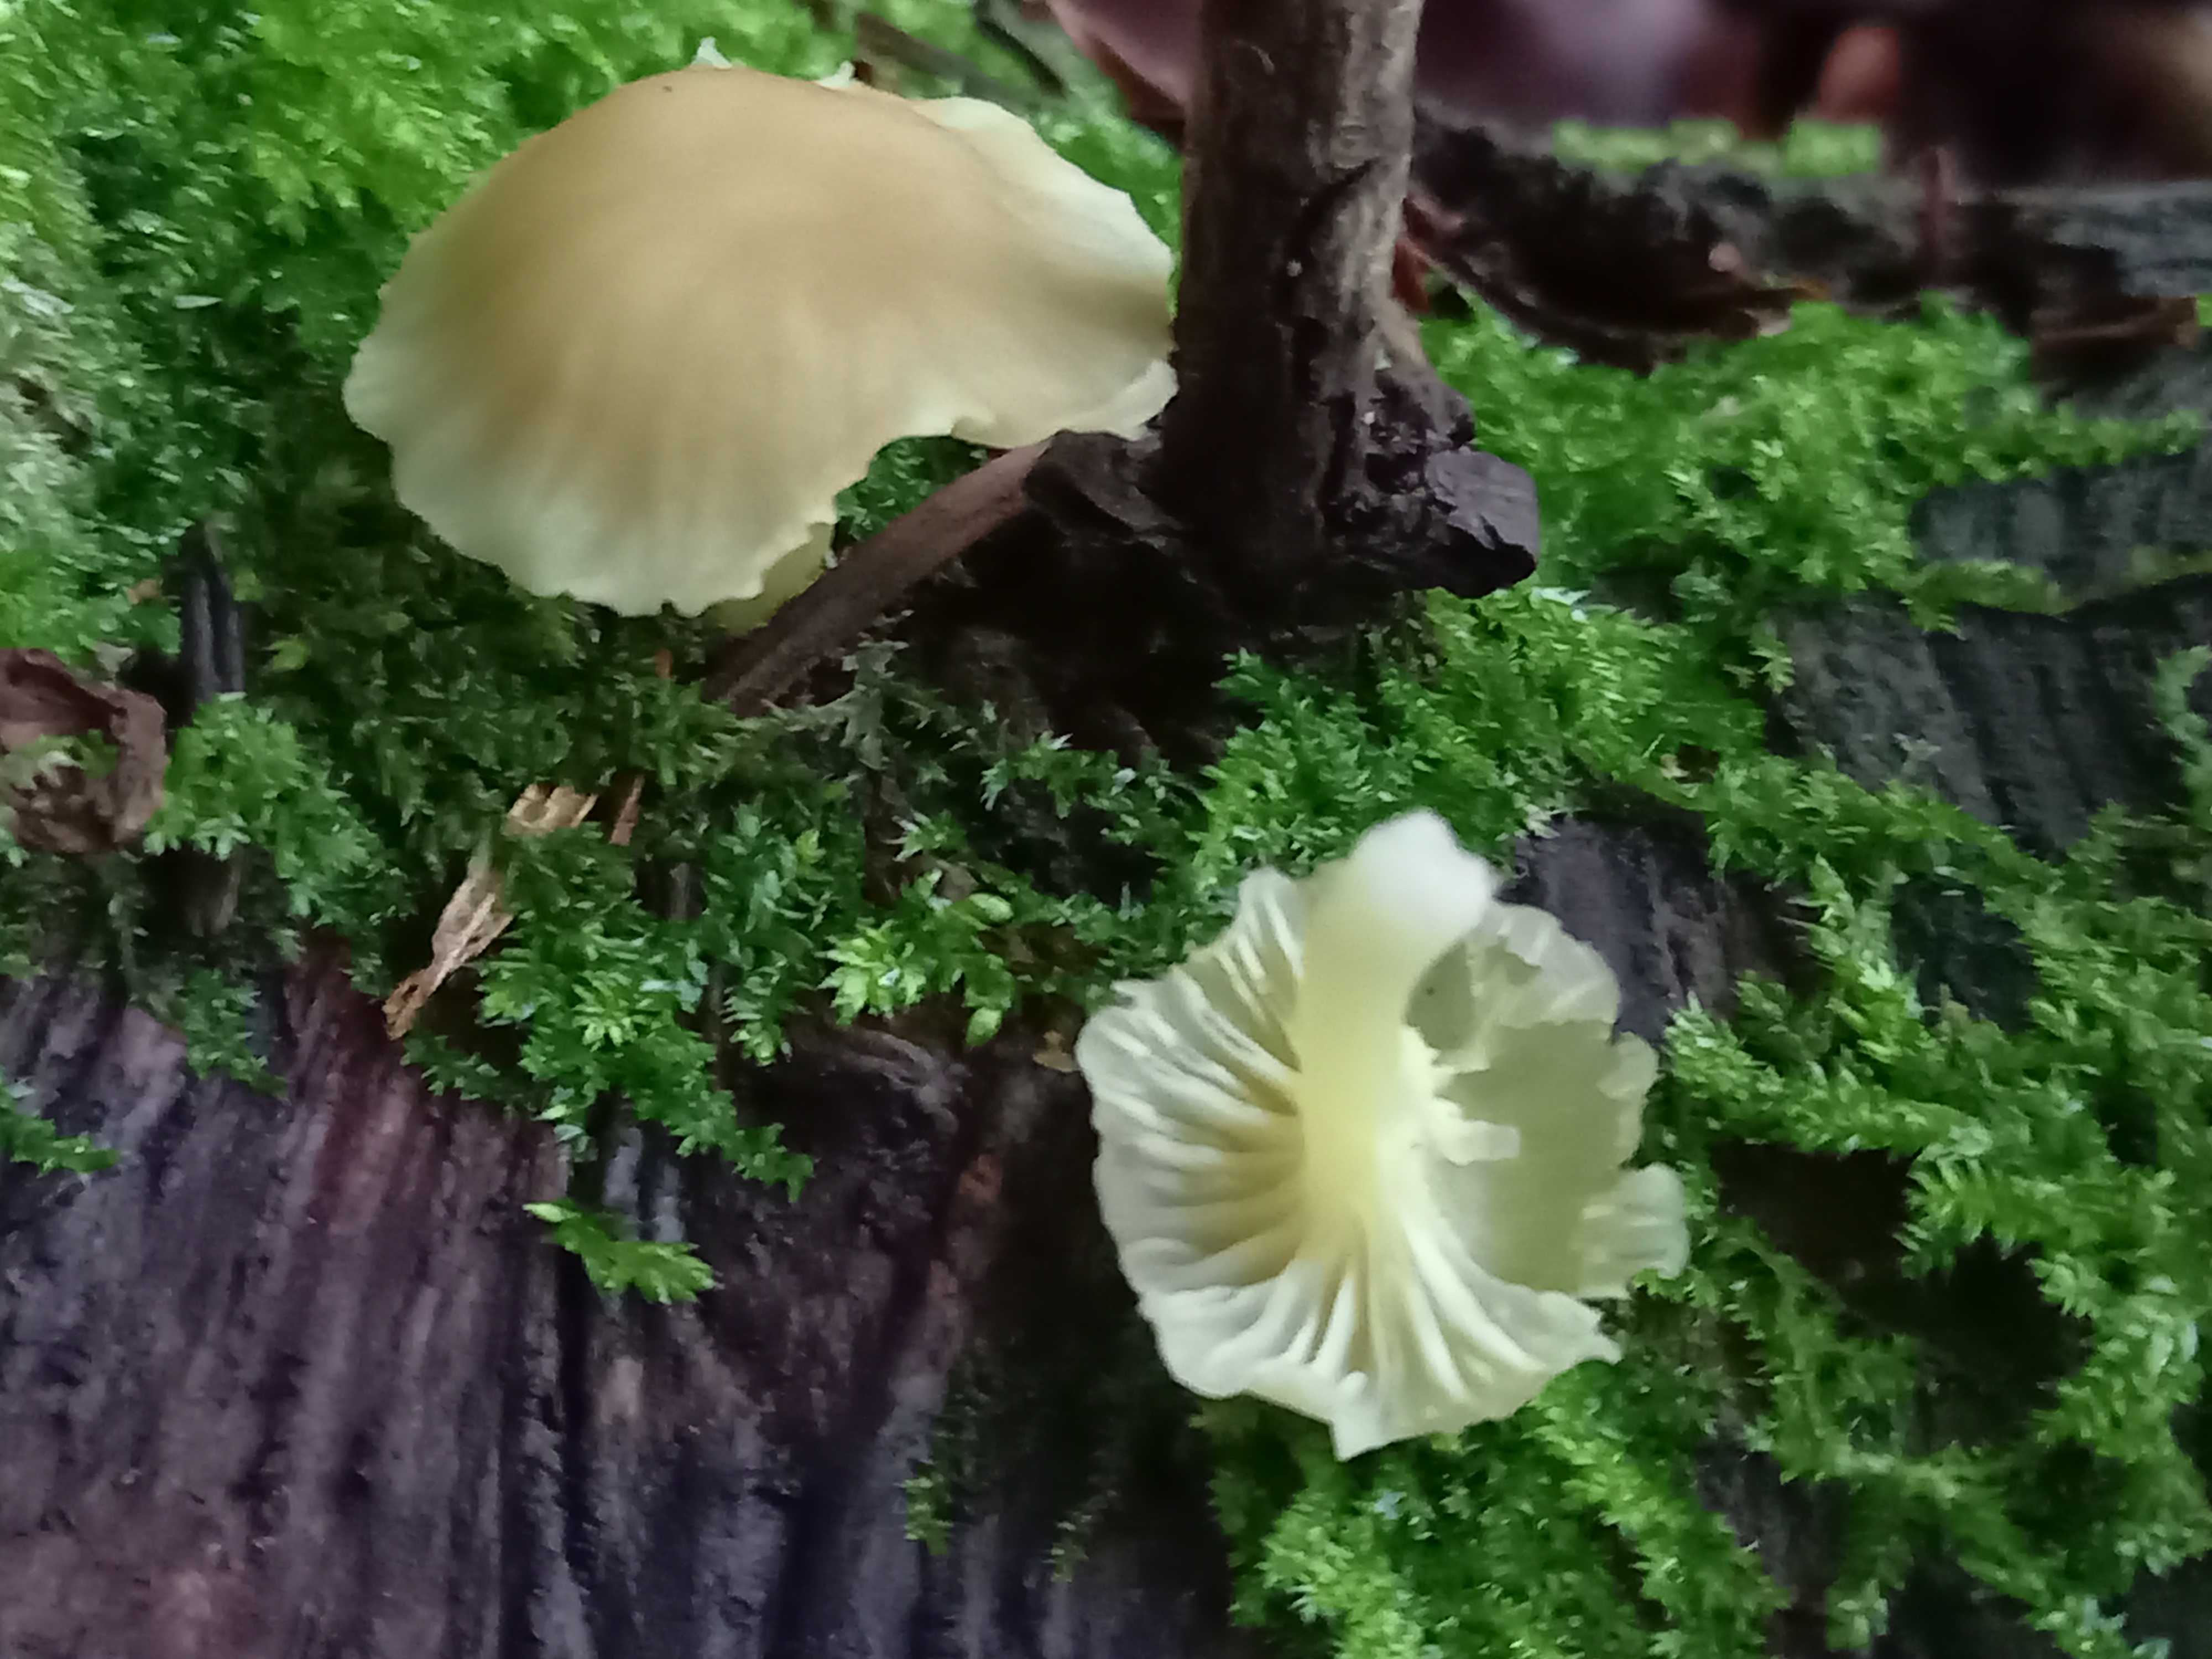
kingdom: Fungi
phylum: Basidiomycota
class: Agaricomycetes
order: Agaricales
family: Hygrophoraceae
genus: Chrysomphalina
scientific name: Chrysomphalina grossula
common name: stød-gyldenblad
